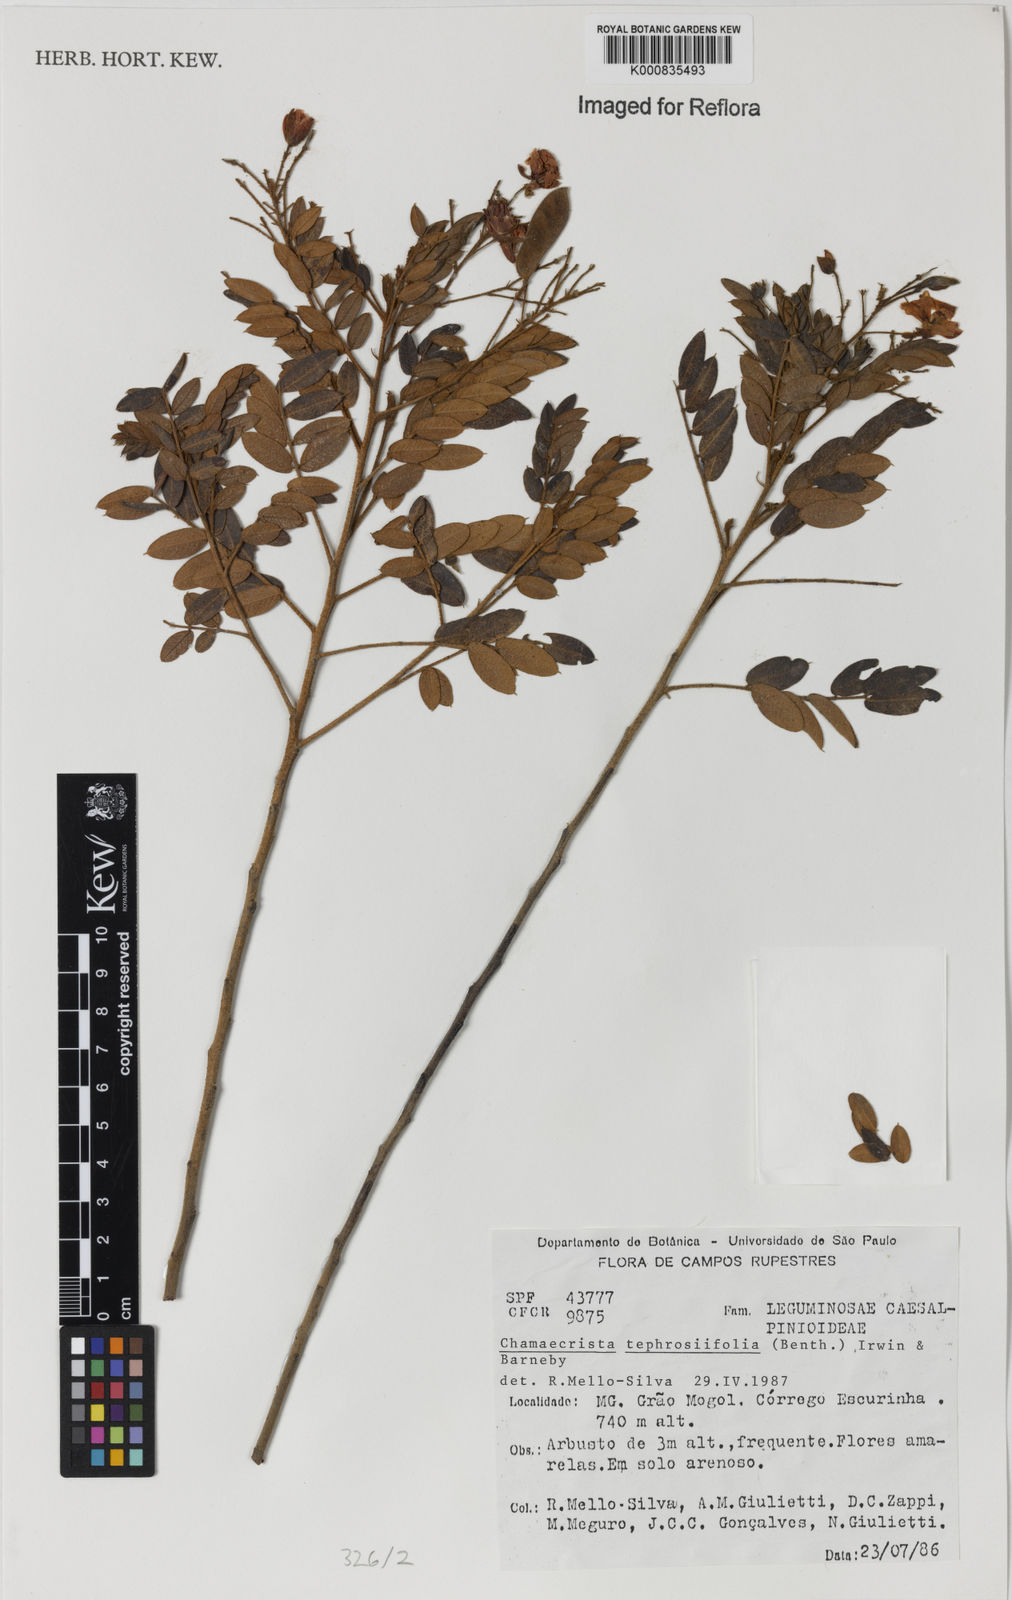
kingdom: Plantae
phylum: Tracheophyta
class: Magnoliopsida
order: Fabales
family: Fabaceae
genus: Chamaecrista
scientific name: Chamaecrista tephrosiifolia
